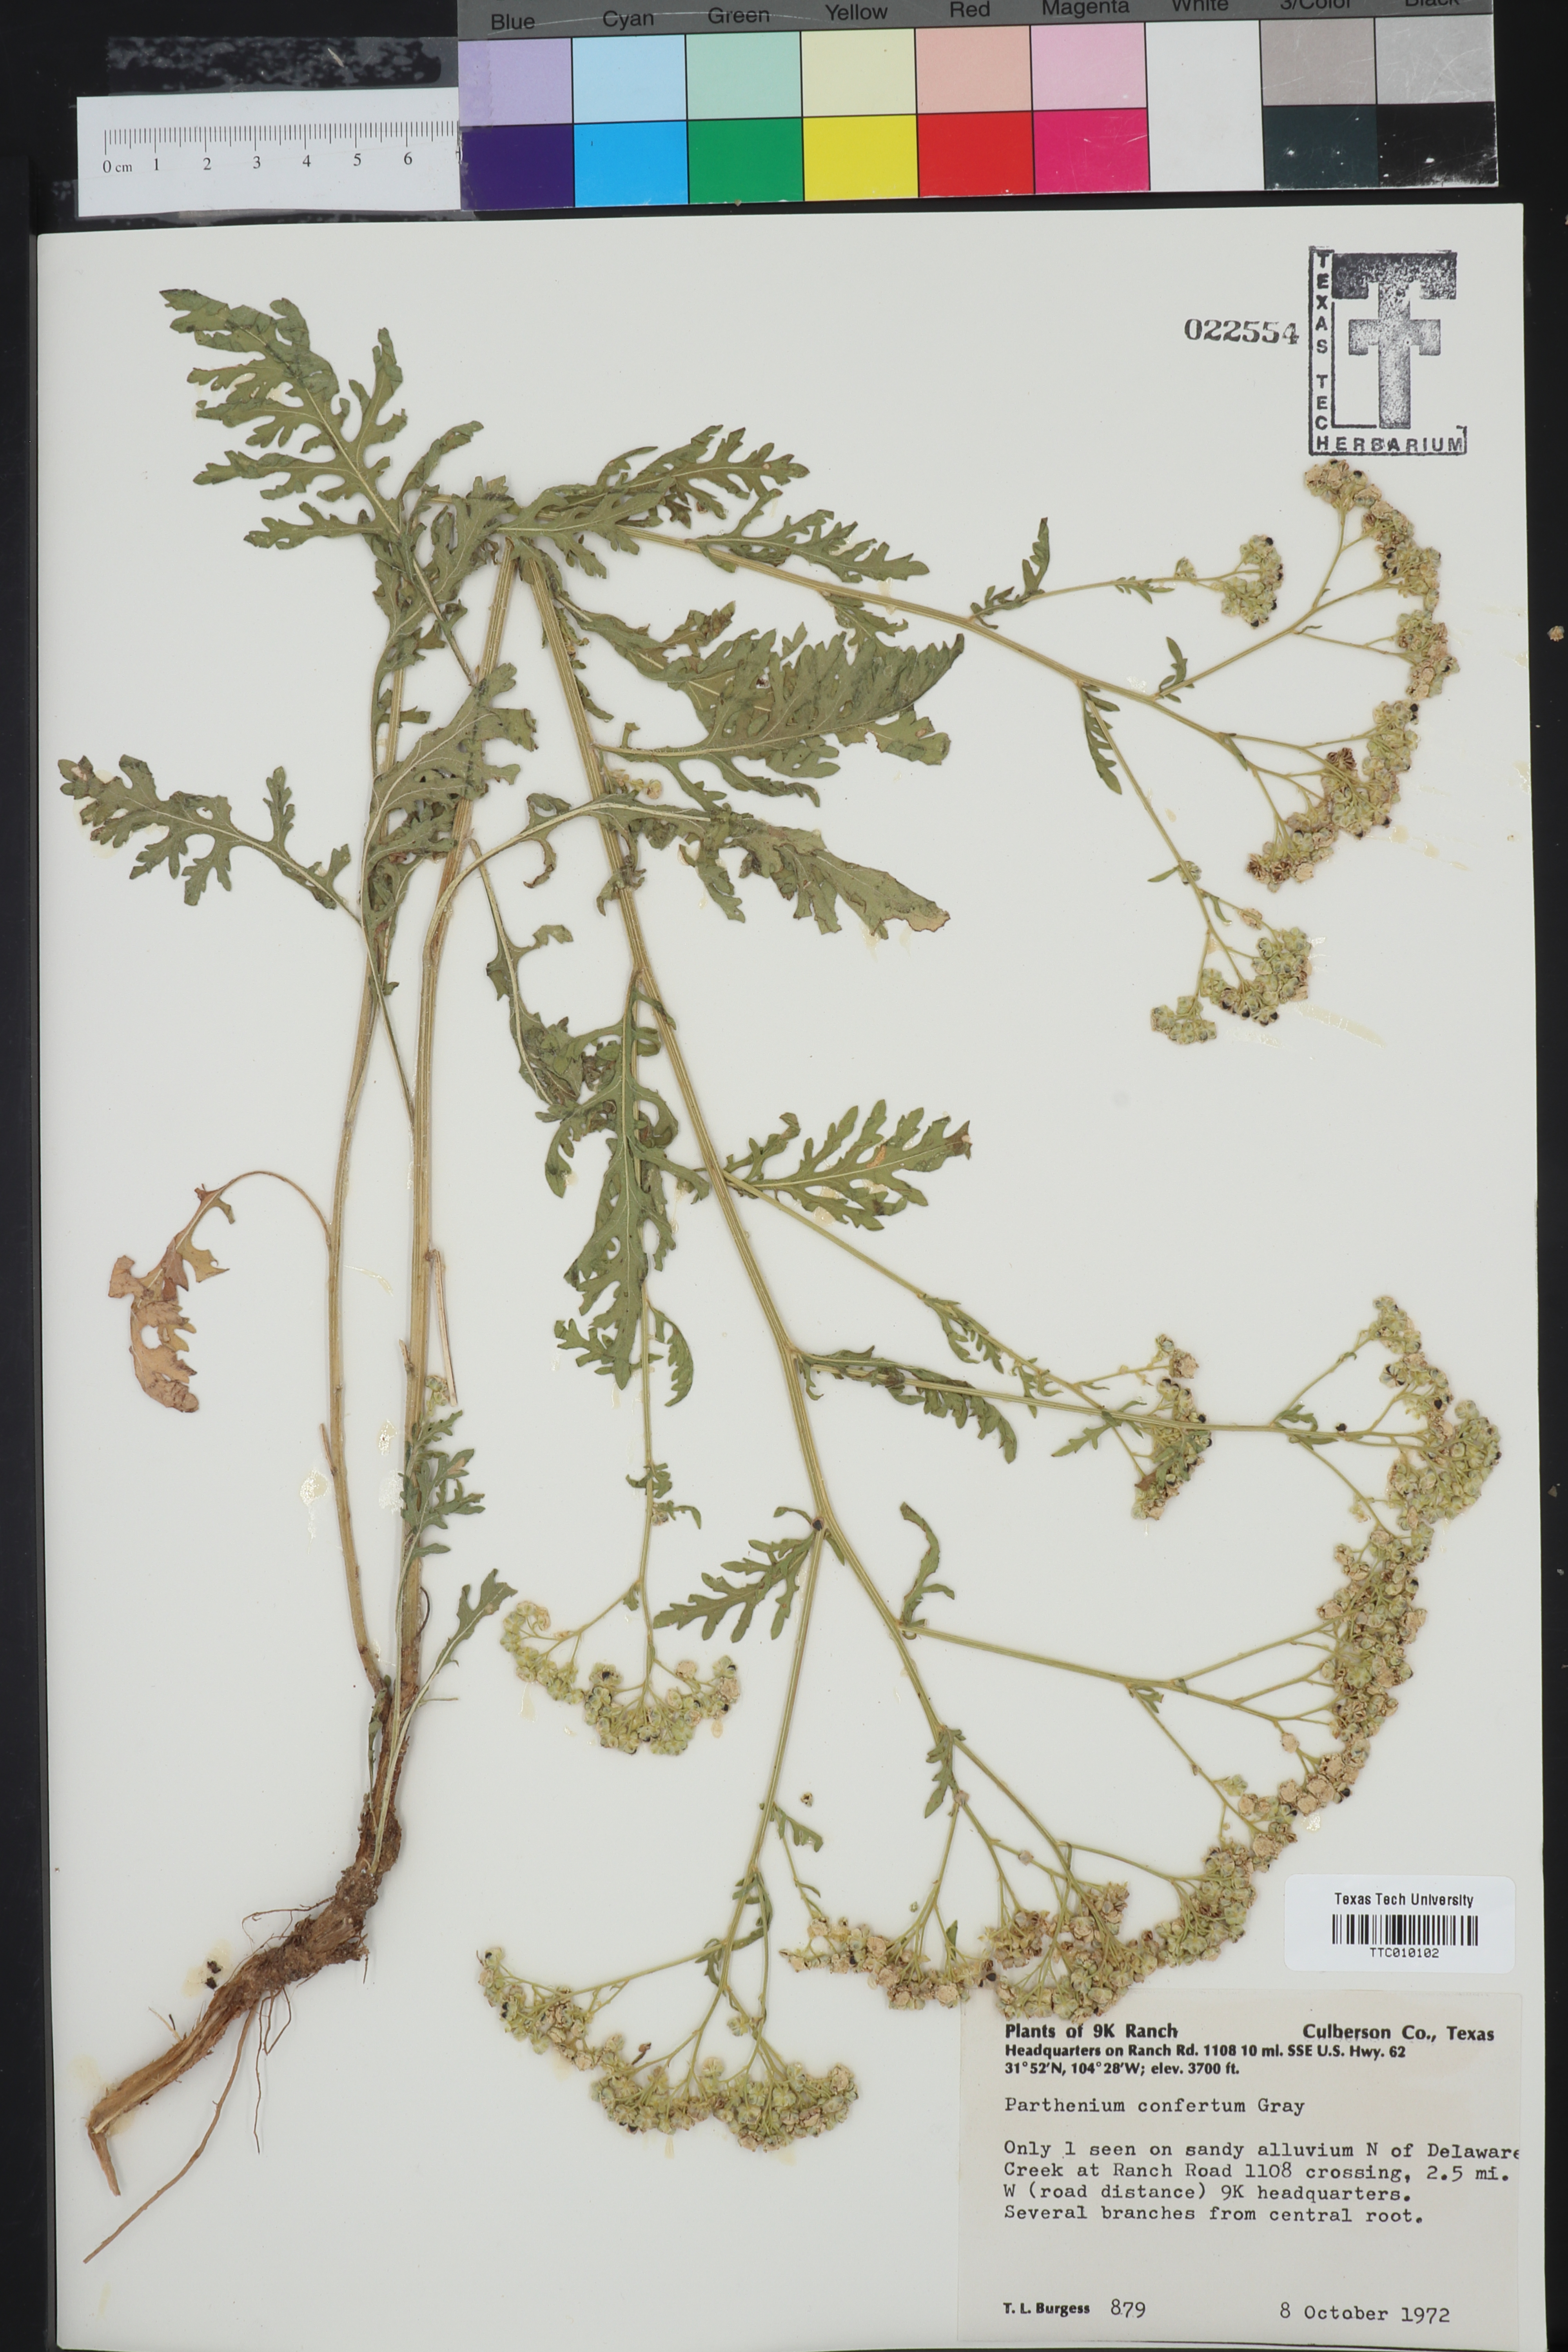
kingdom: Plantae
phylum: Tracheophyta
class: Magnoliopsida
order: Asterales
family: Asteraceae
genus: Parthenium
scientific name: Parthenium confertum
